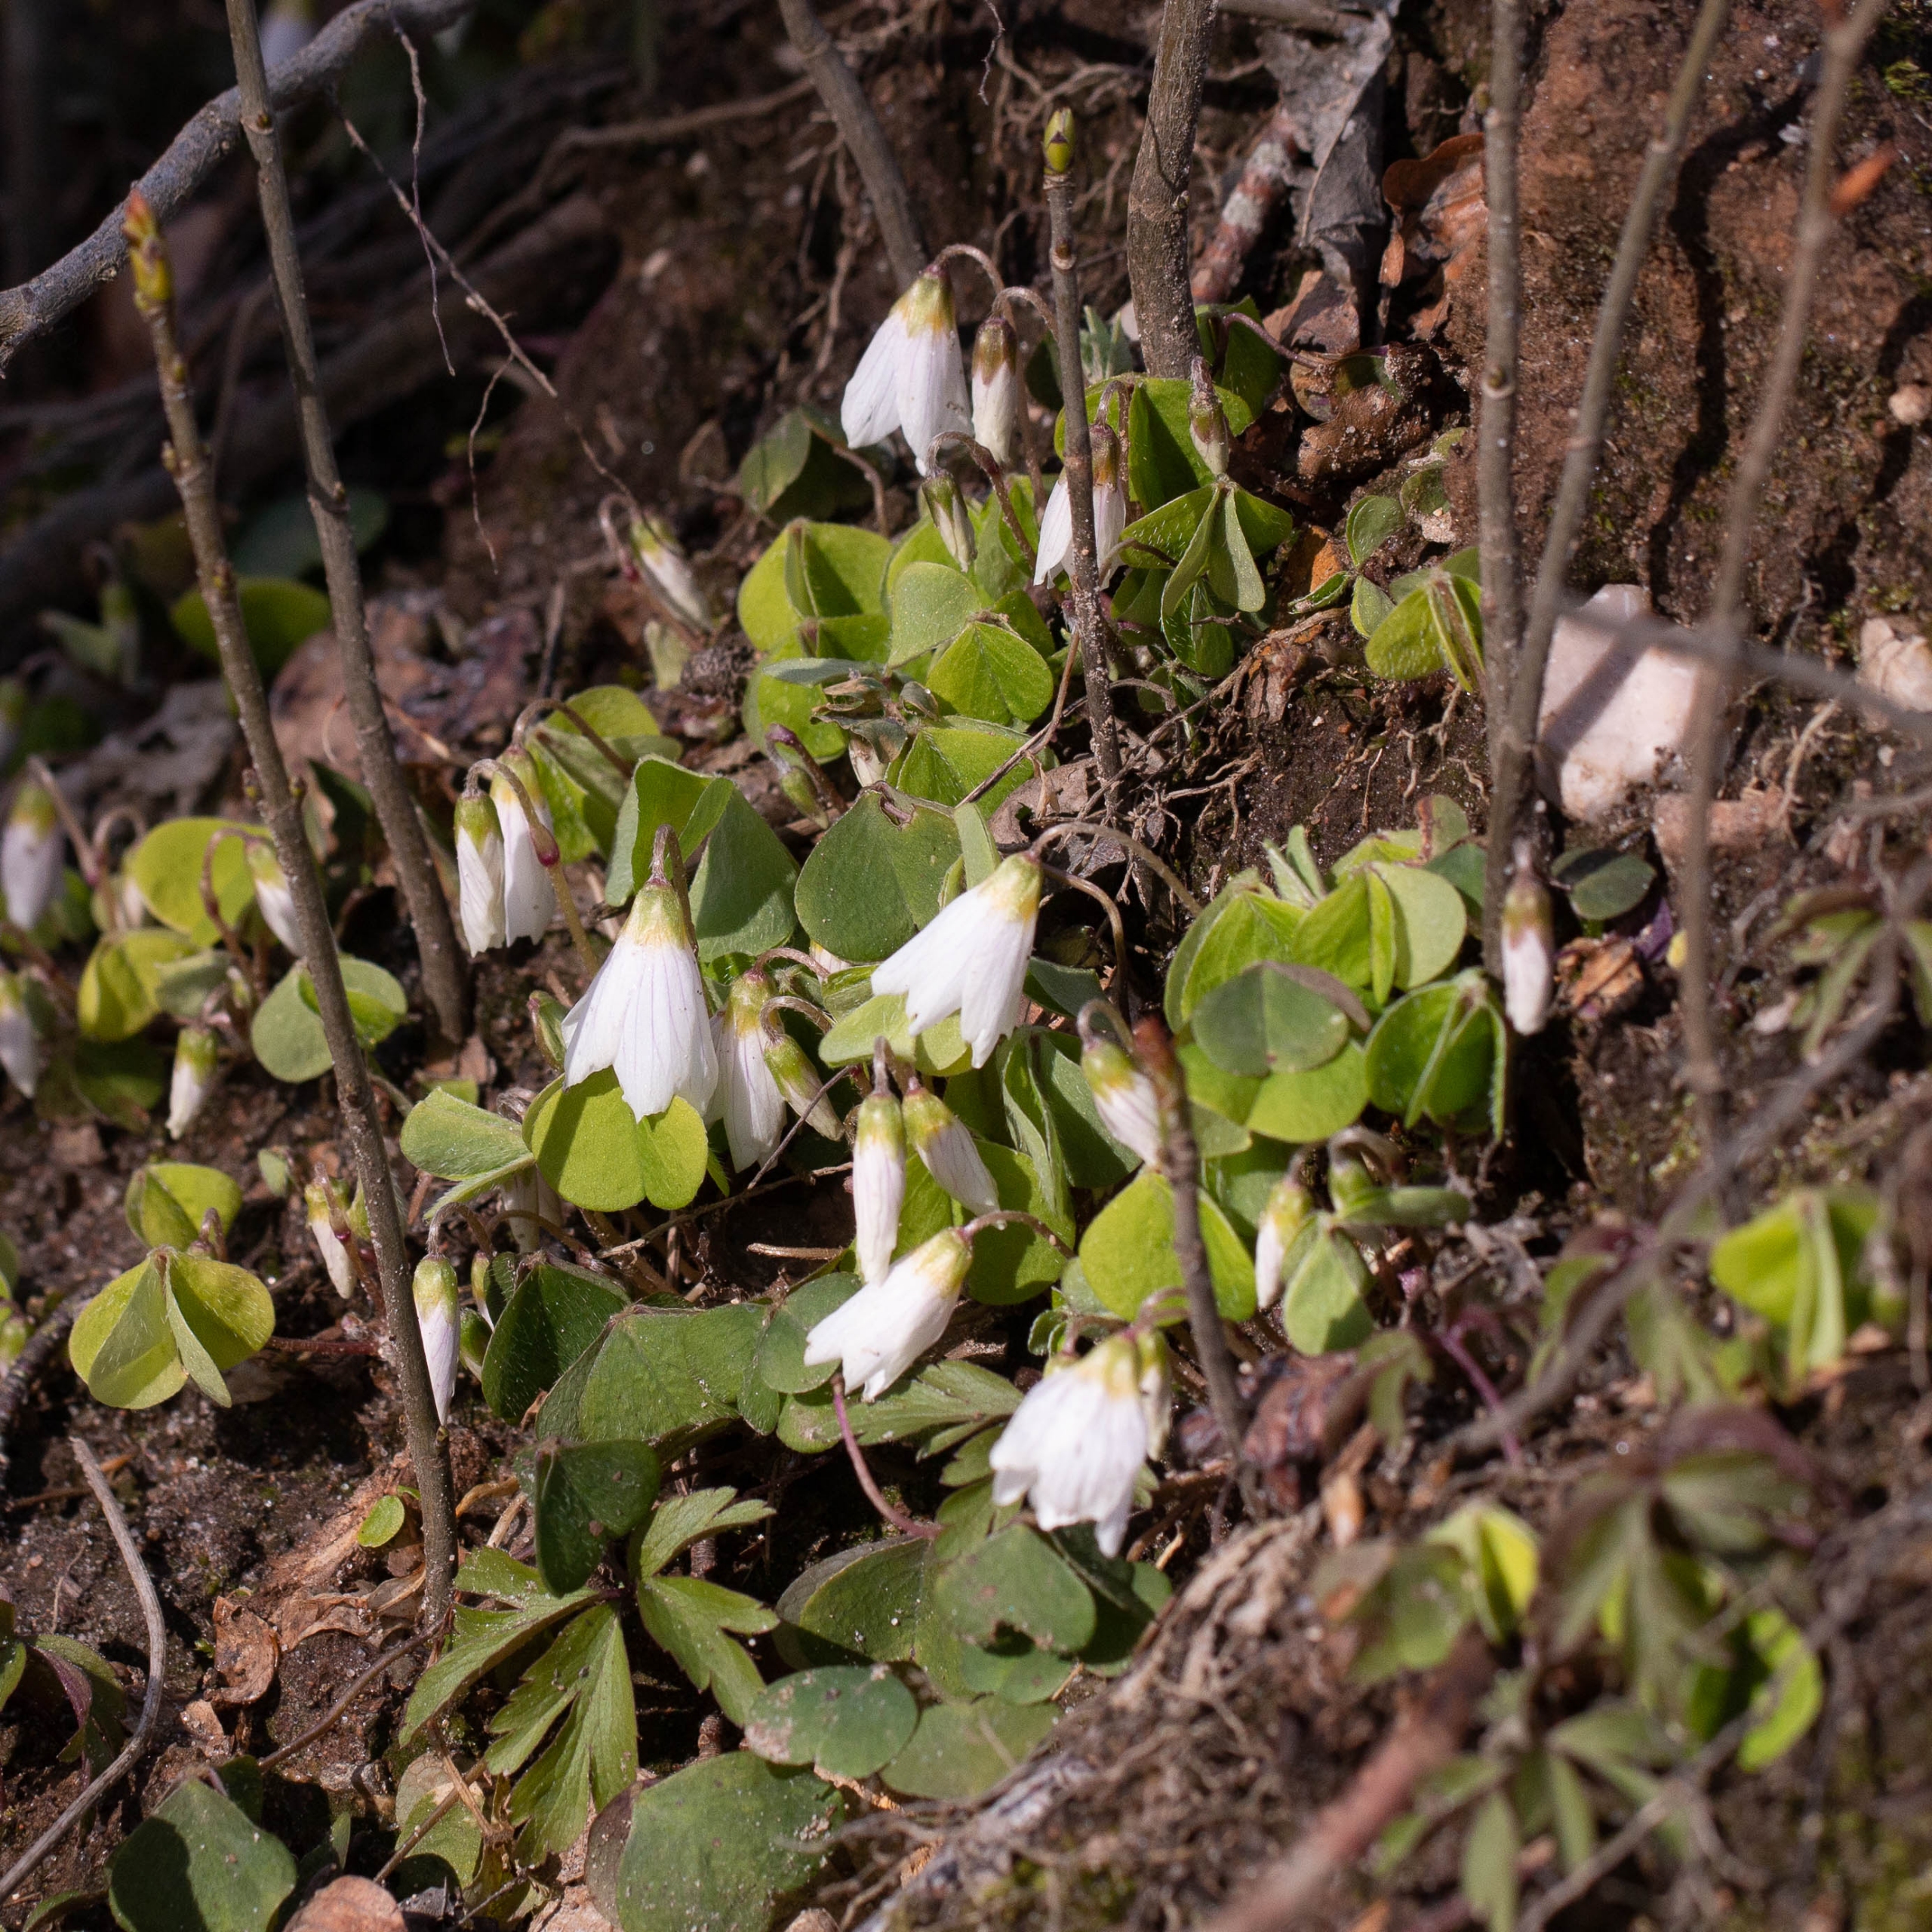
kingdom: Plantae
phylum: Tracheophyta
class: Magnoliopsida
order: Oxalidales
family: Oxalidaceae
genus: Oxalis
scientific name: Oxalis acetosella
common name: Skovsyre
